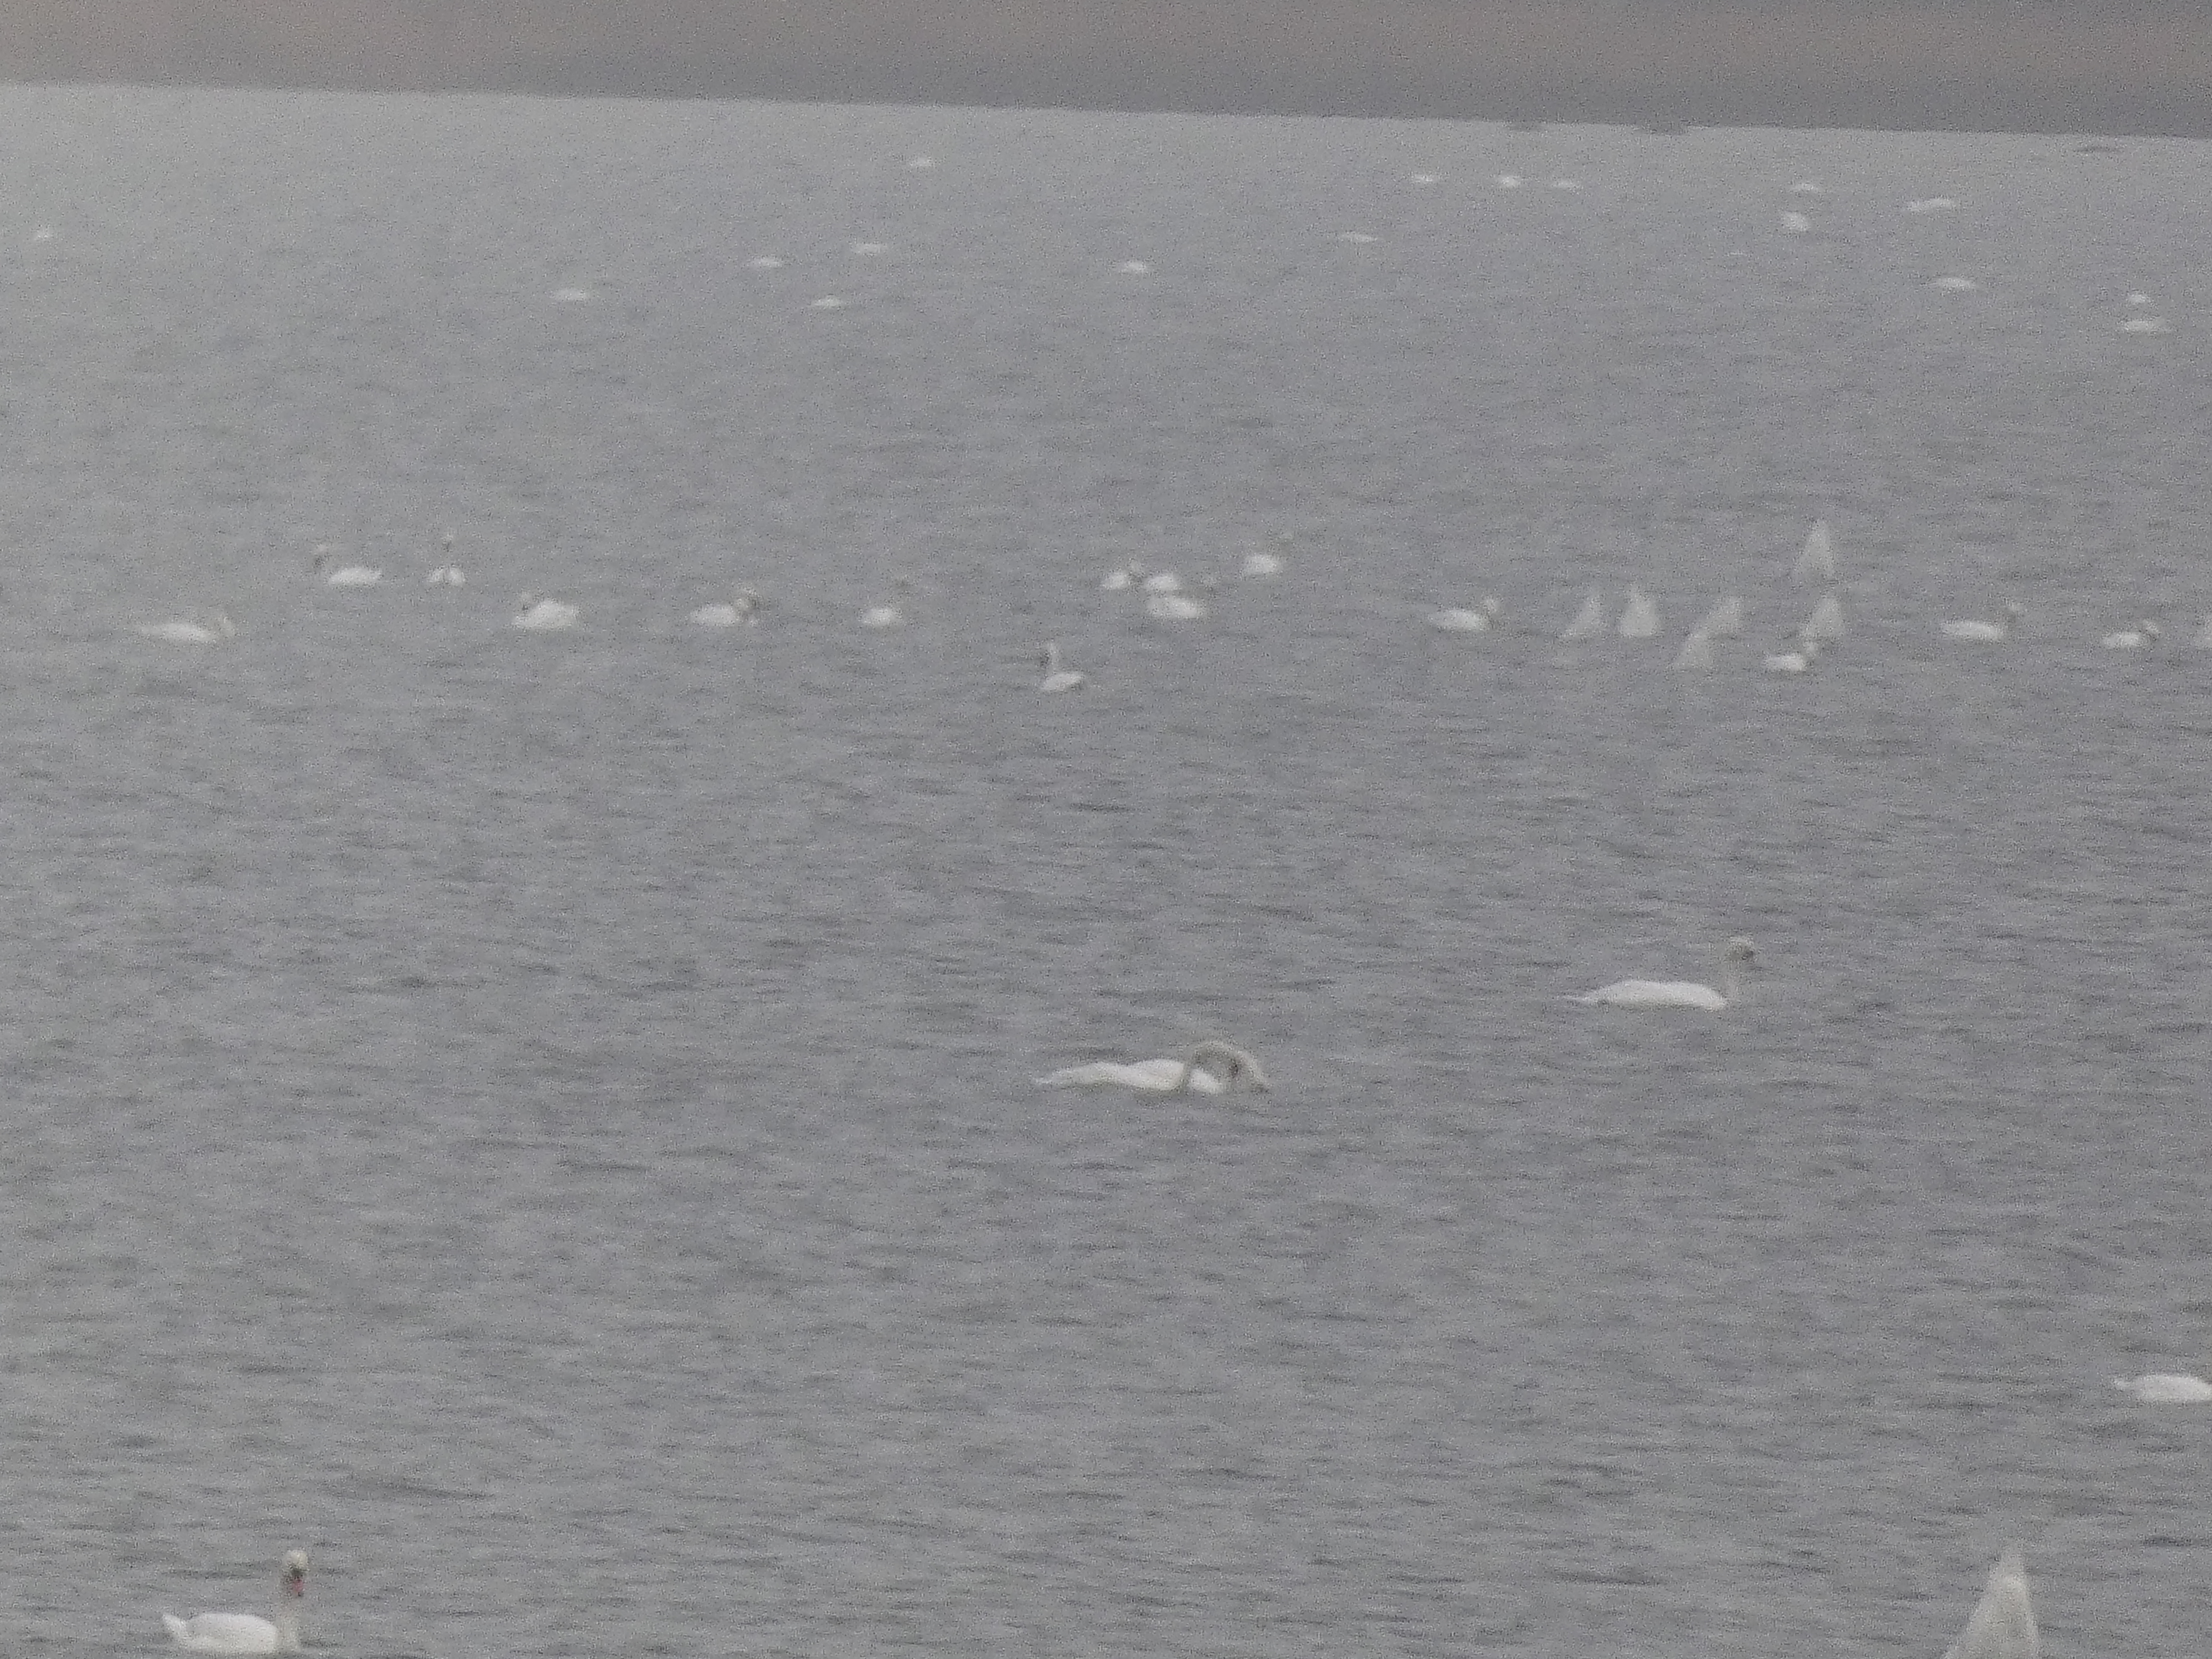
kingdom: Animalia
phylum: Chordata
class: Aves
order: Anseriformes
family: Anatidae
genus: Cygnus
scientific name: Cygnus olor
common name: Knopsvane
